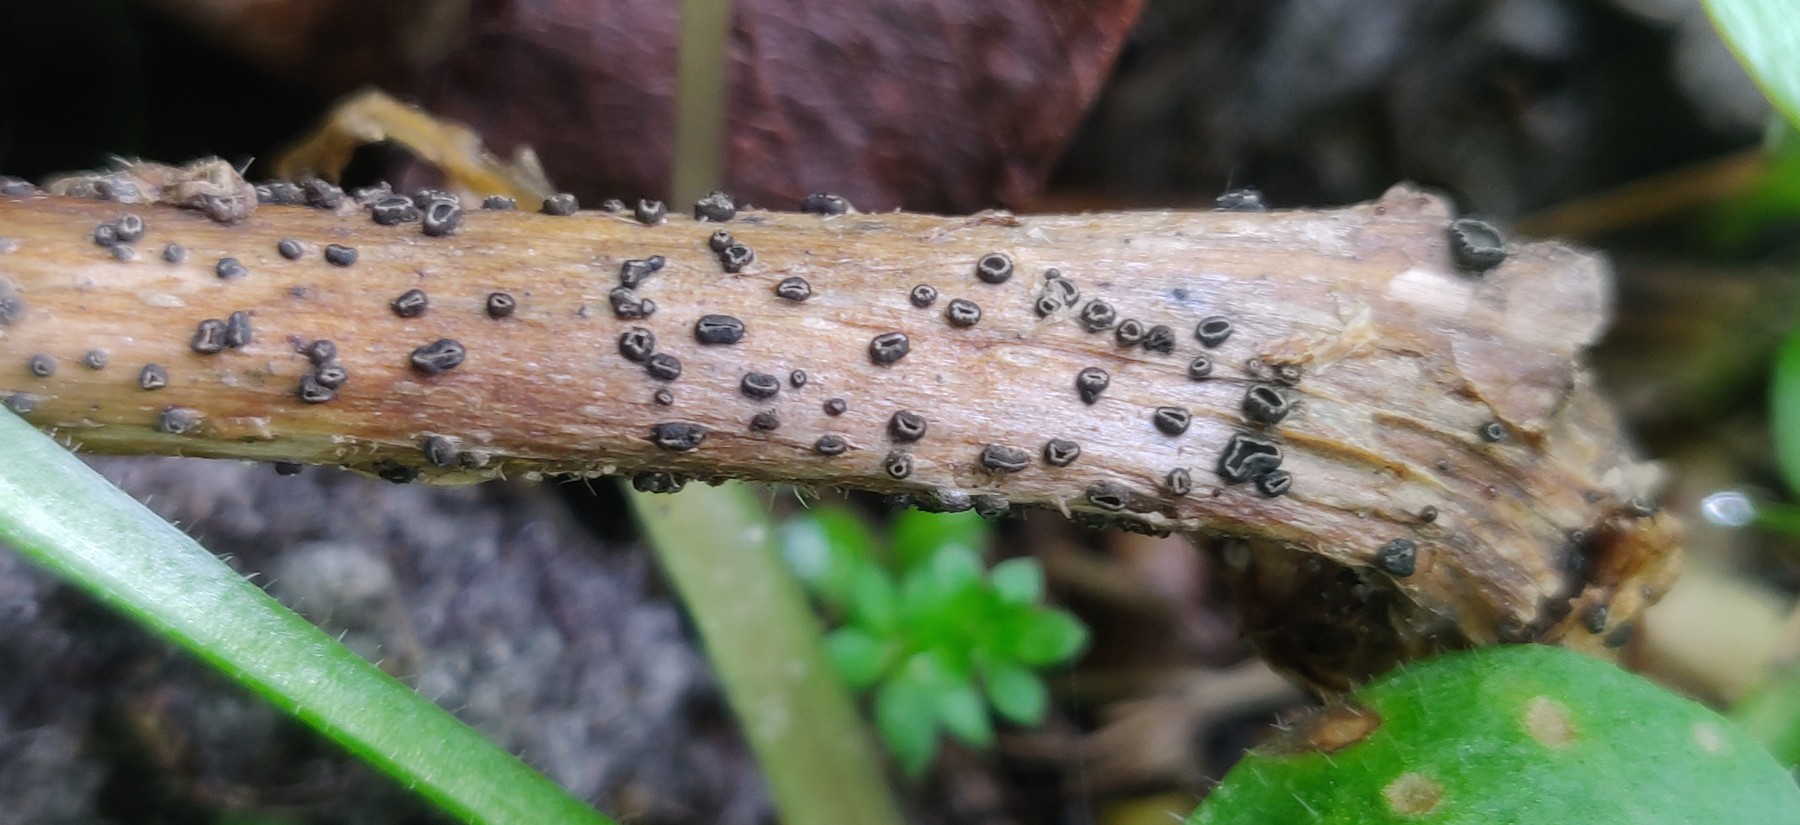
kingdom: Fungi
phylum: Ascomycota
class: Leotiomycetes
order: Helotiales
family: Ploettnerulaceae
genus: Pirottaea
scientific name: Pirottaea lychnidis
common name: pragtstjerne-kerneskive
